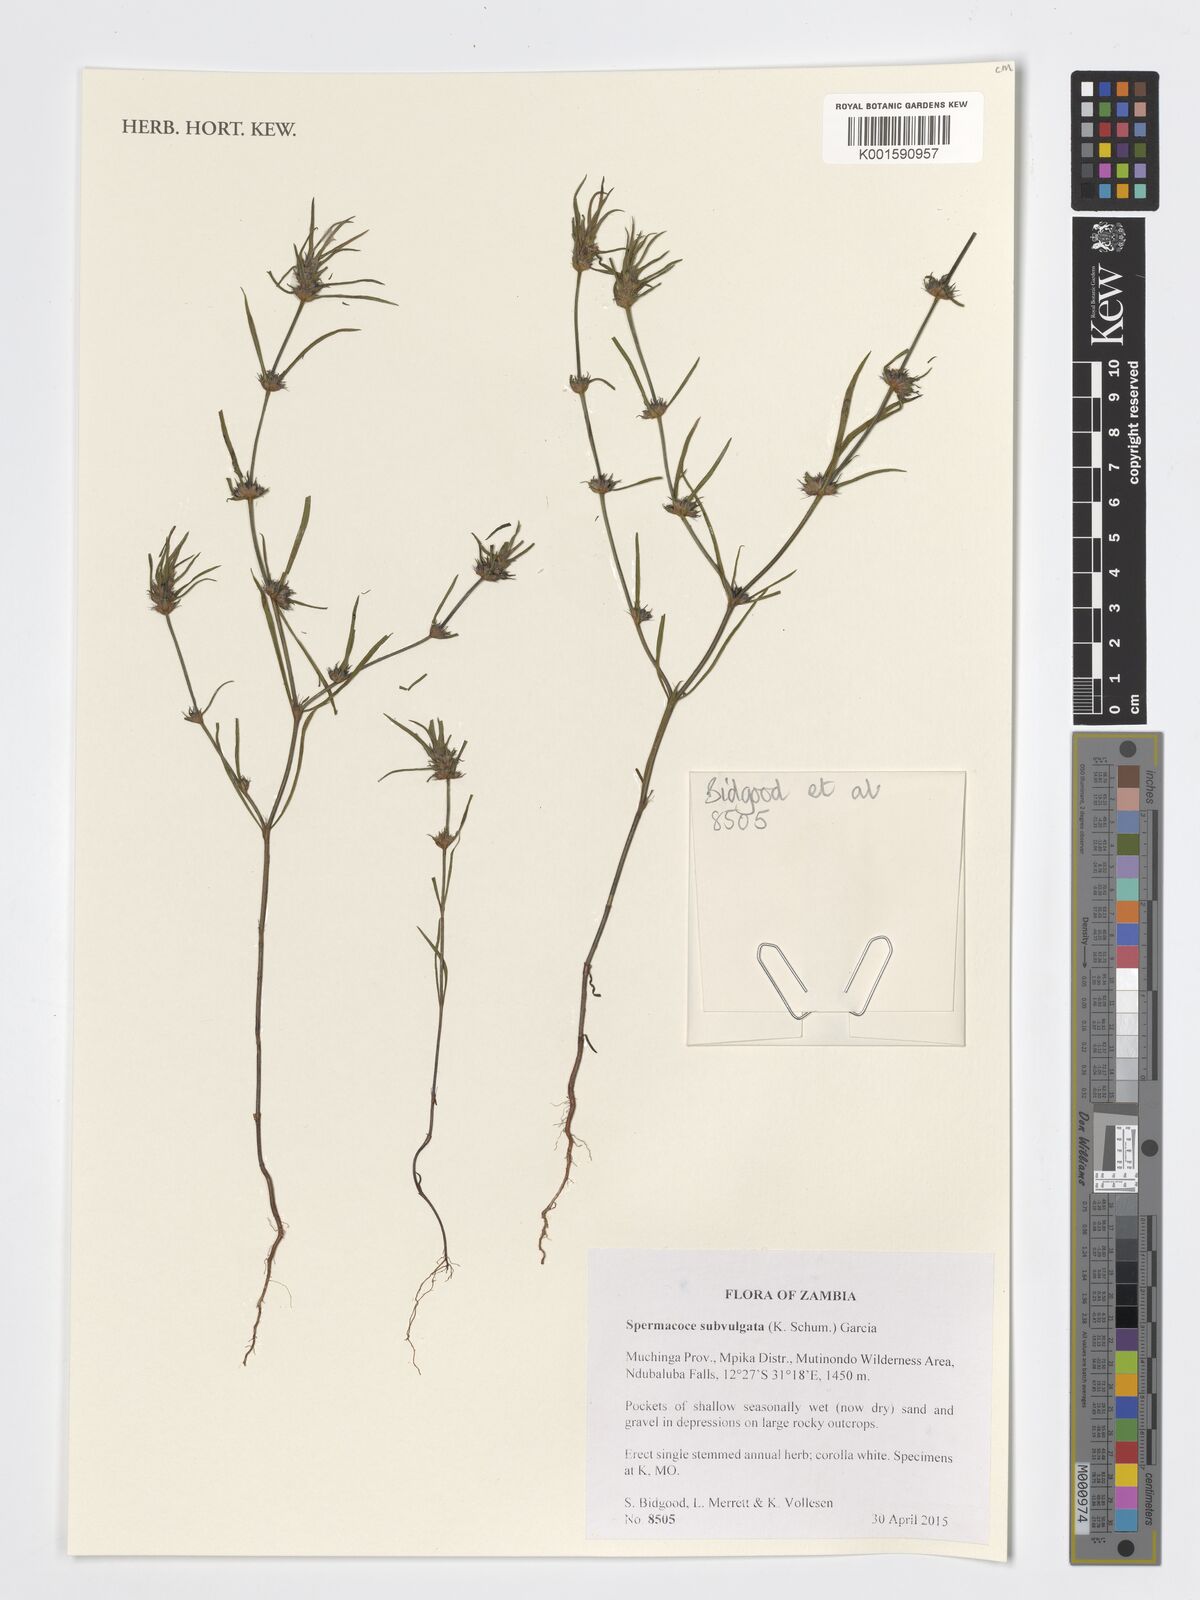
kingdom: Plantae
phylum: Tracheophyta
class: Magnoliopsida
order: Gentianales
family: Rubiaceae
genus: Spermacoce
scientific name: Spermacoce subvulgata
